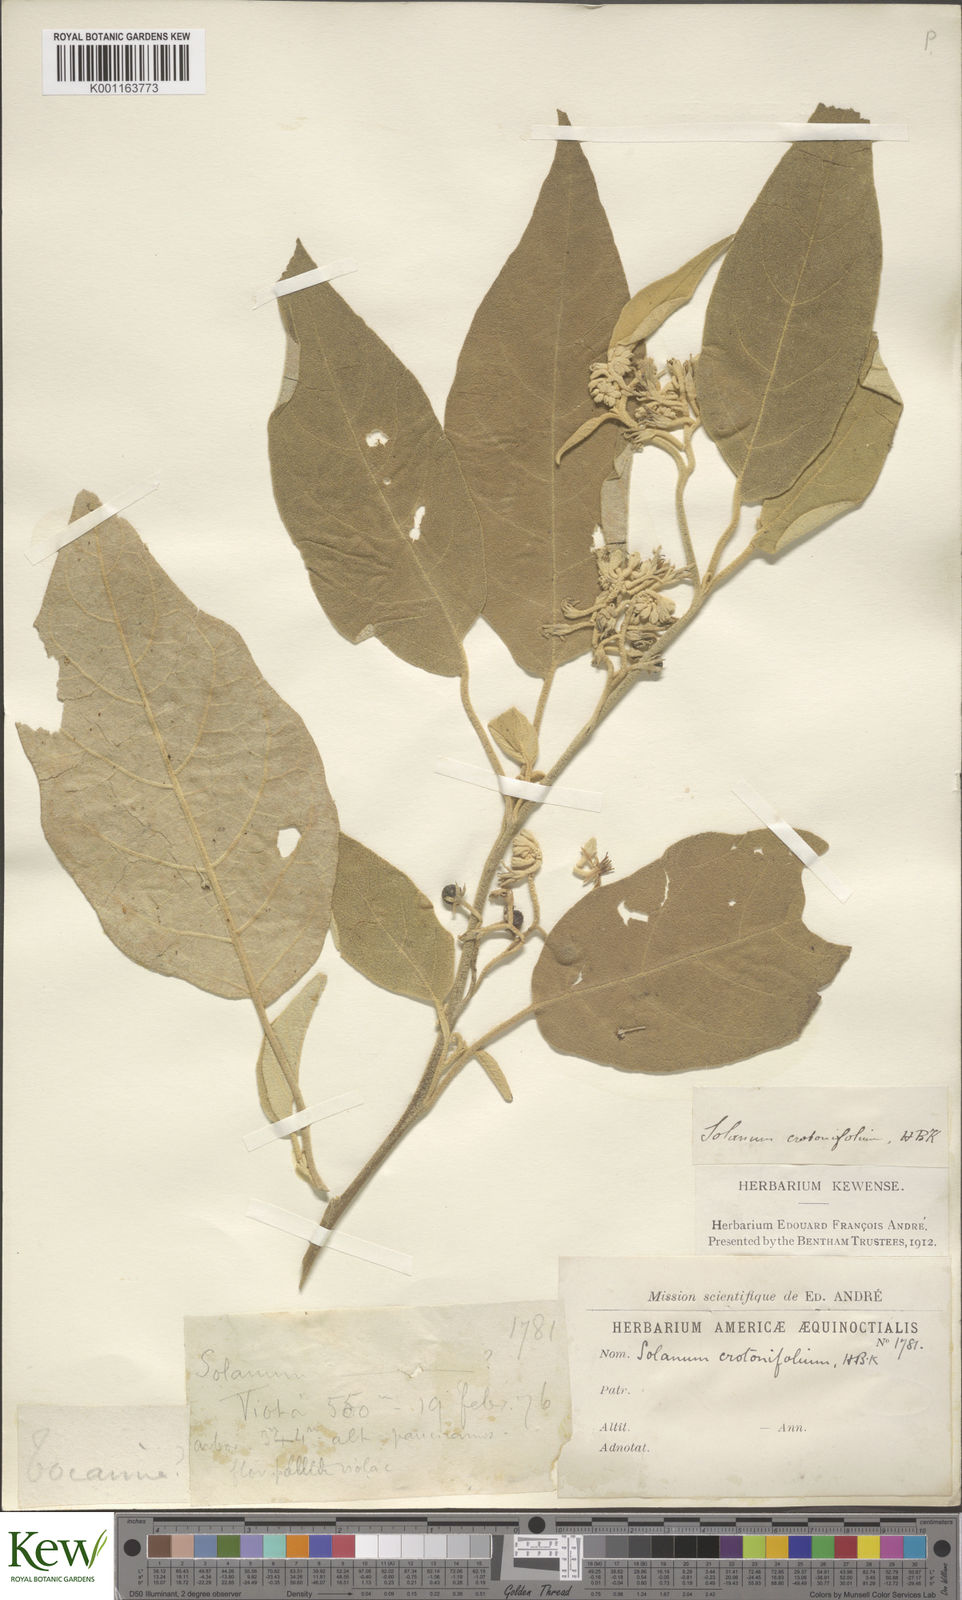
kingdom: Plantae
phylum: Tracheophyta
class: Magnoliopsida
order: Solanales
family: Solanaceae
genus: Solanum
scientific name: Solanum crotonifolium
